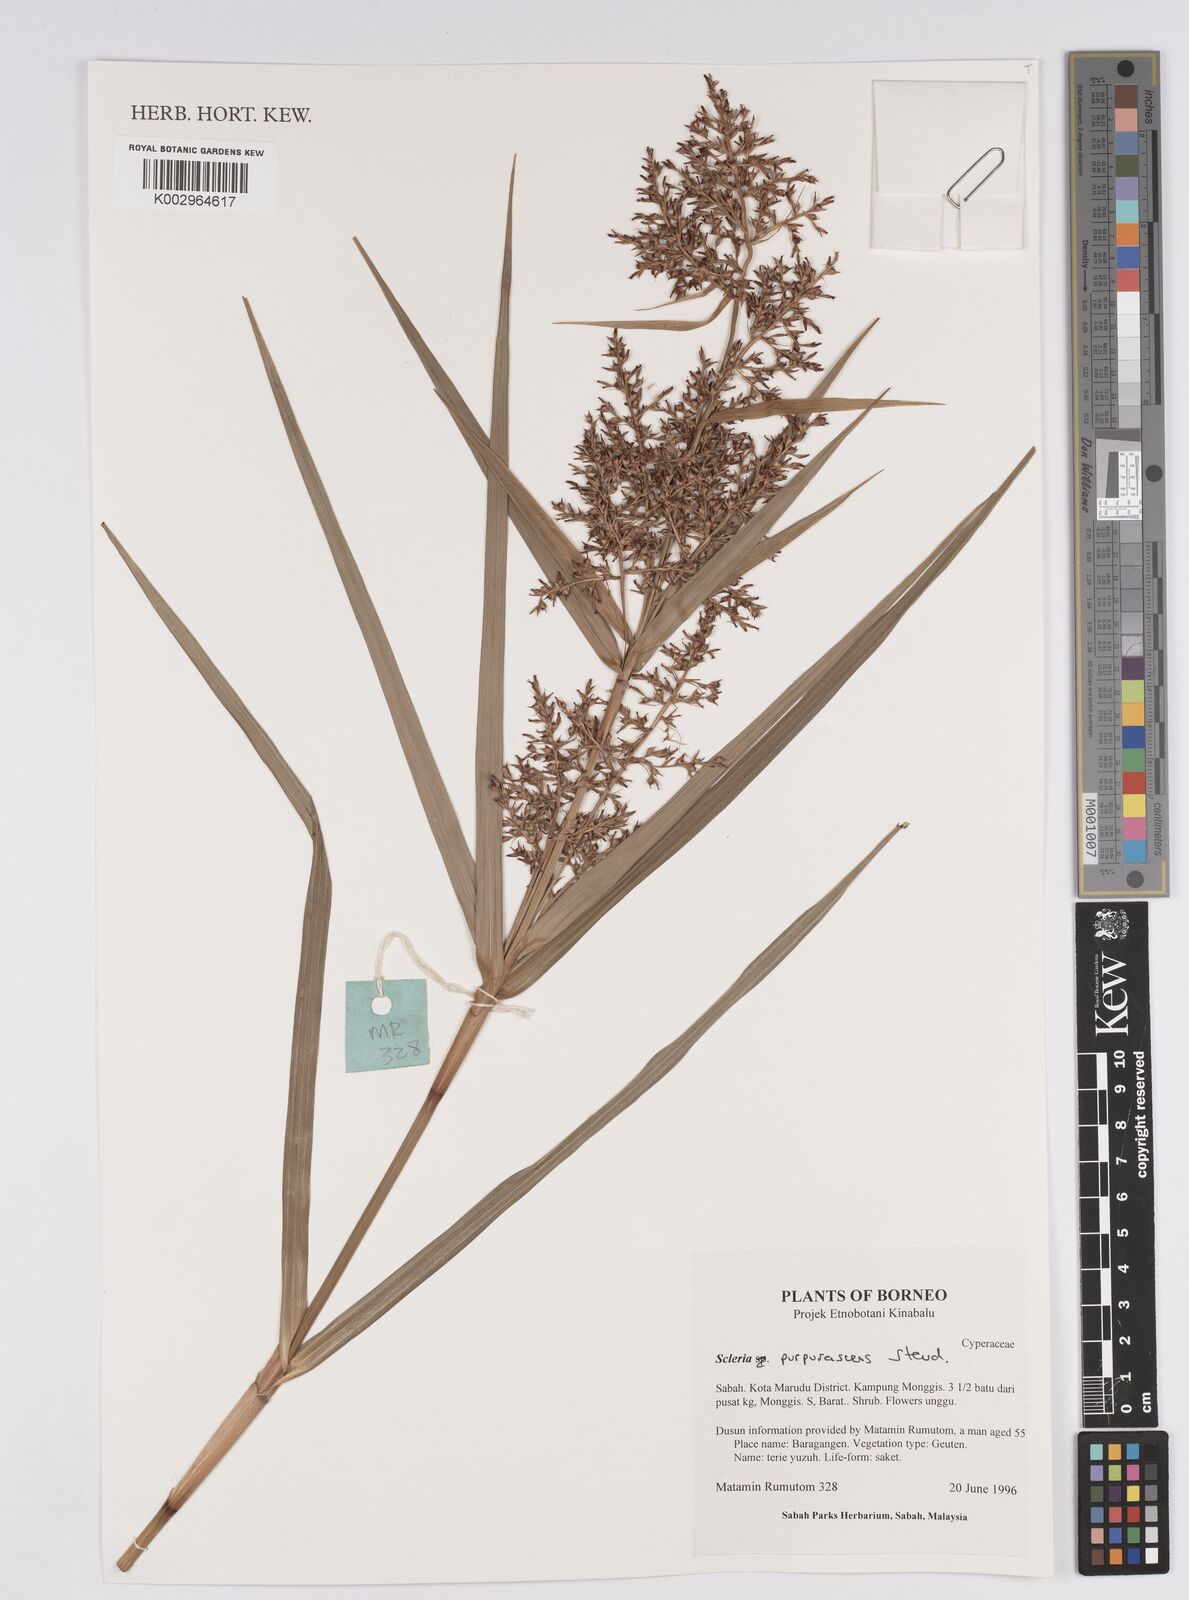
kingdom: Plantae
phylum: Tracheophyta
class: Liliopsida
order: Poales
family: Cyperaceae
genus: Scleria
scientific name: Scleria purpurascens
